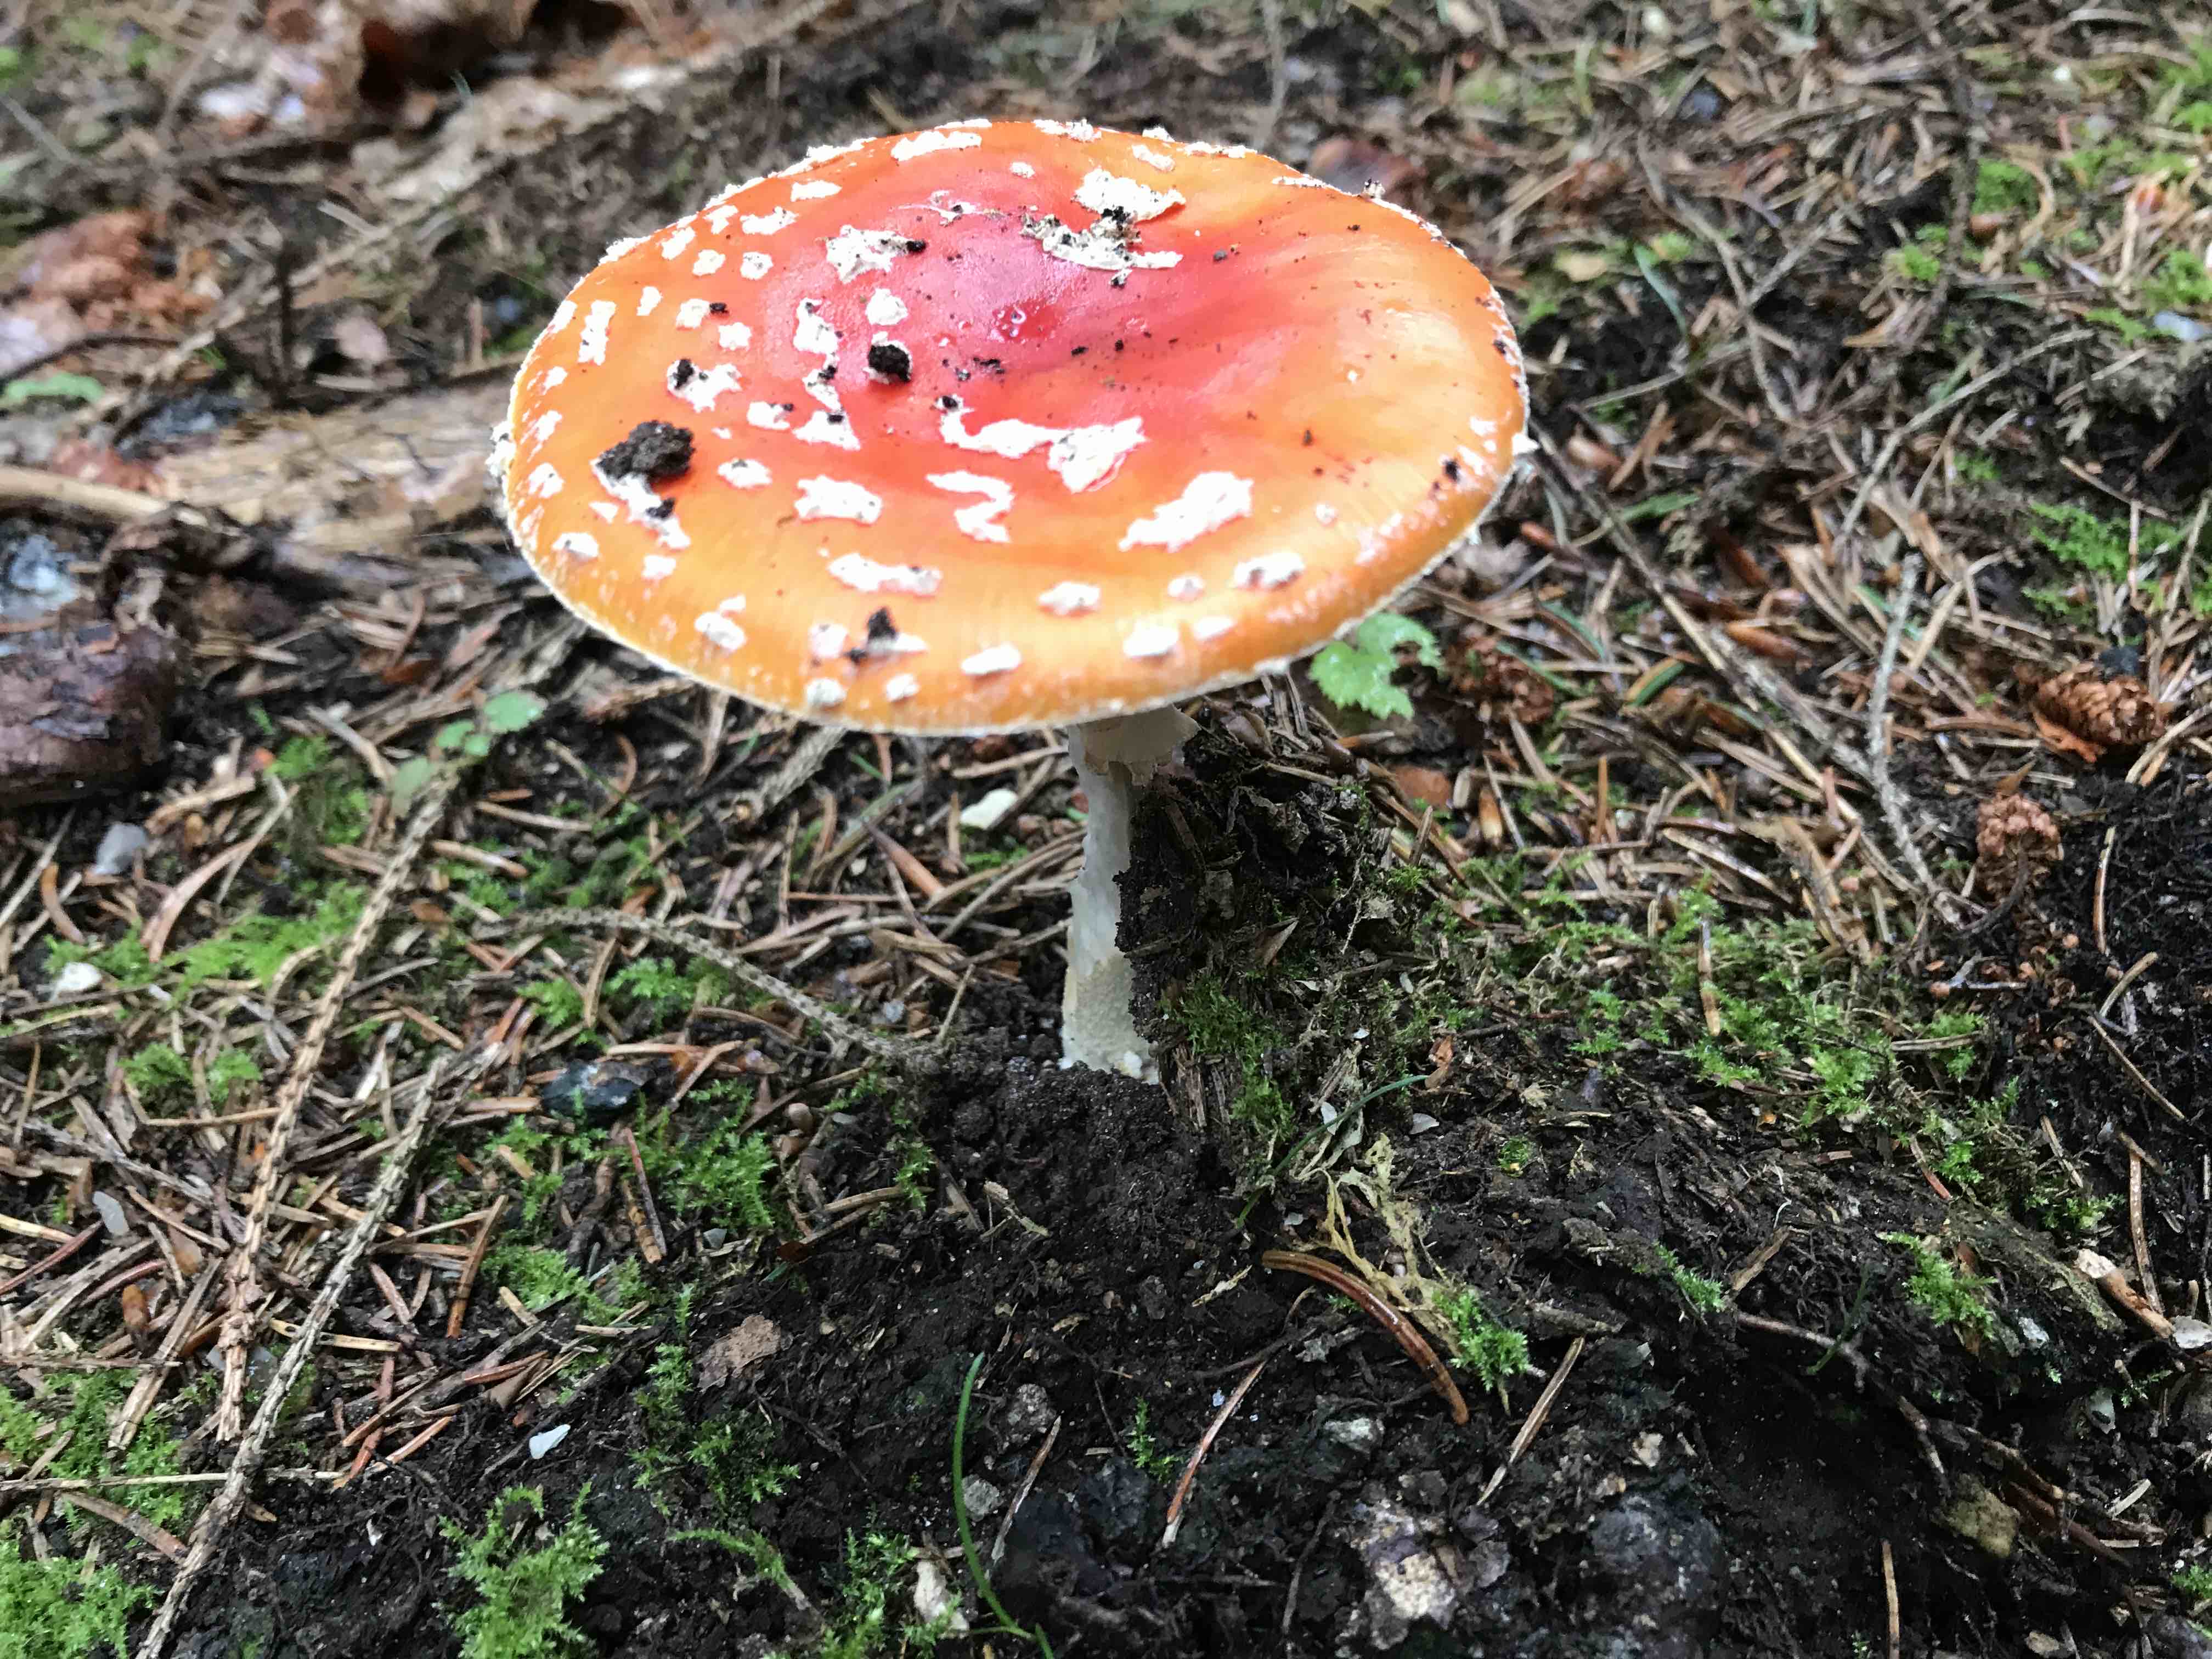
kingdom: Fungi
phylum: Basidiomycota
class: Agaricomycetes
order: Agaricales
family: Amanitaceae
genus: Amanita
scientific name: Amanita muscaria
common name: rød fluesvamp
